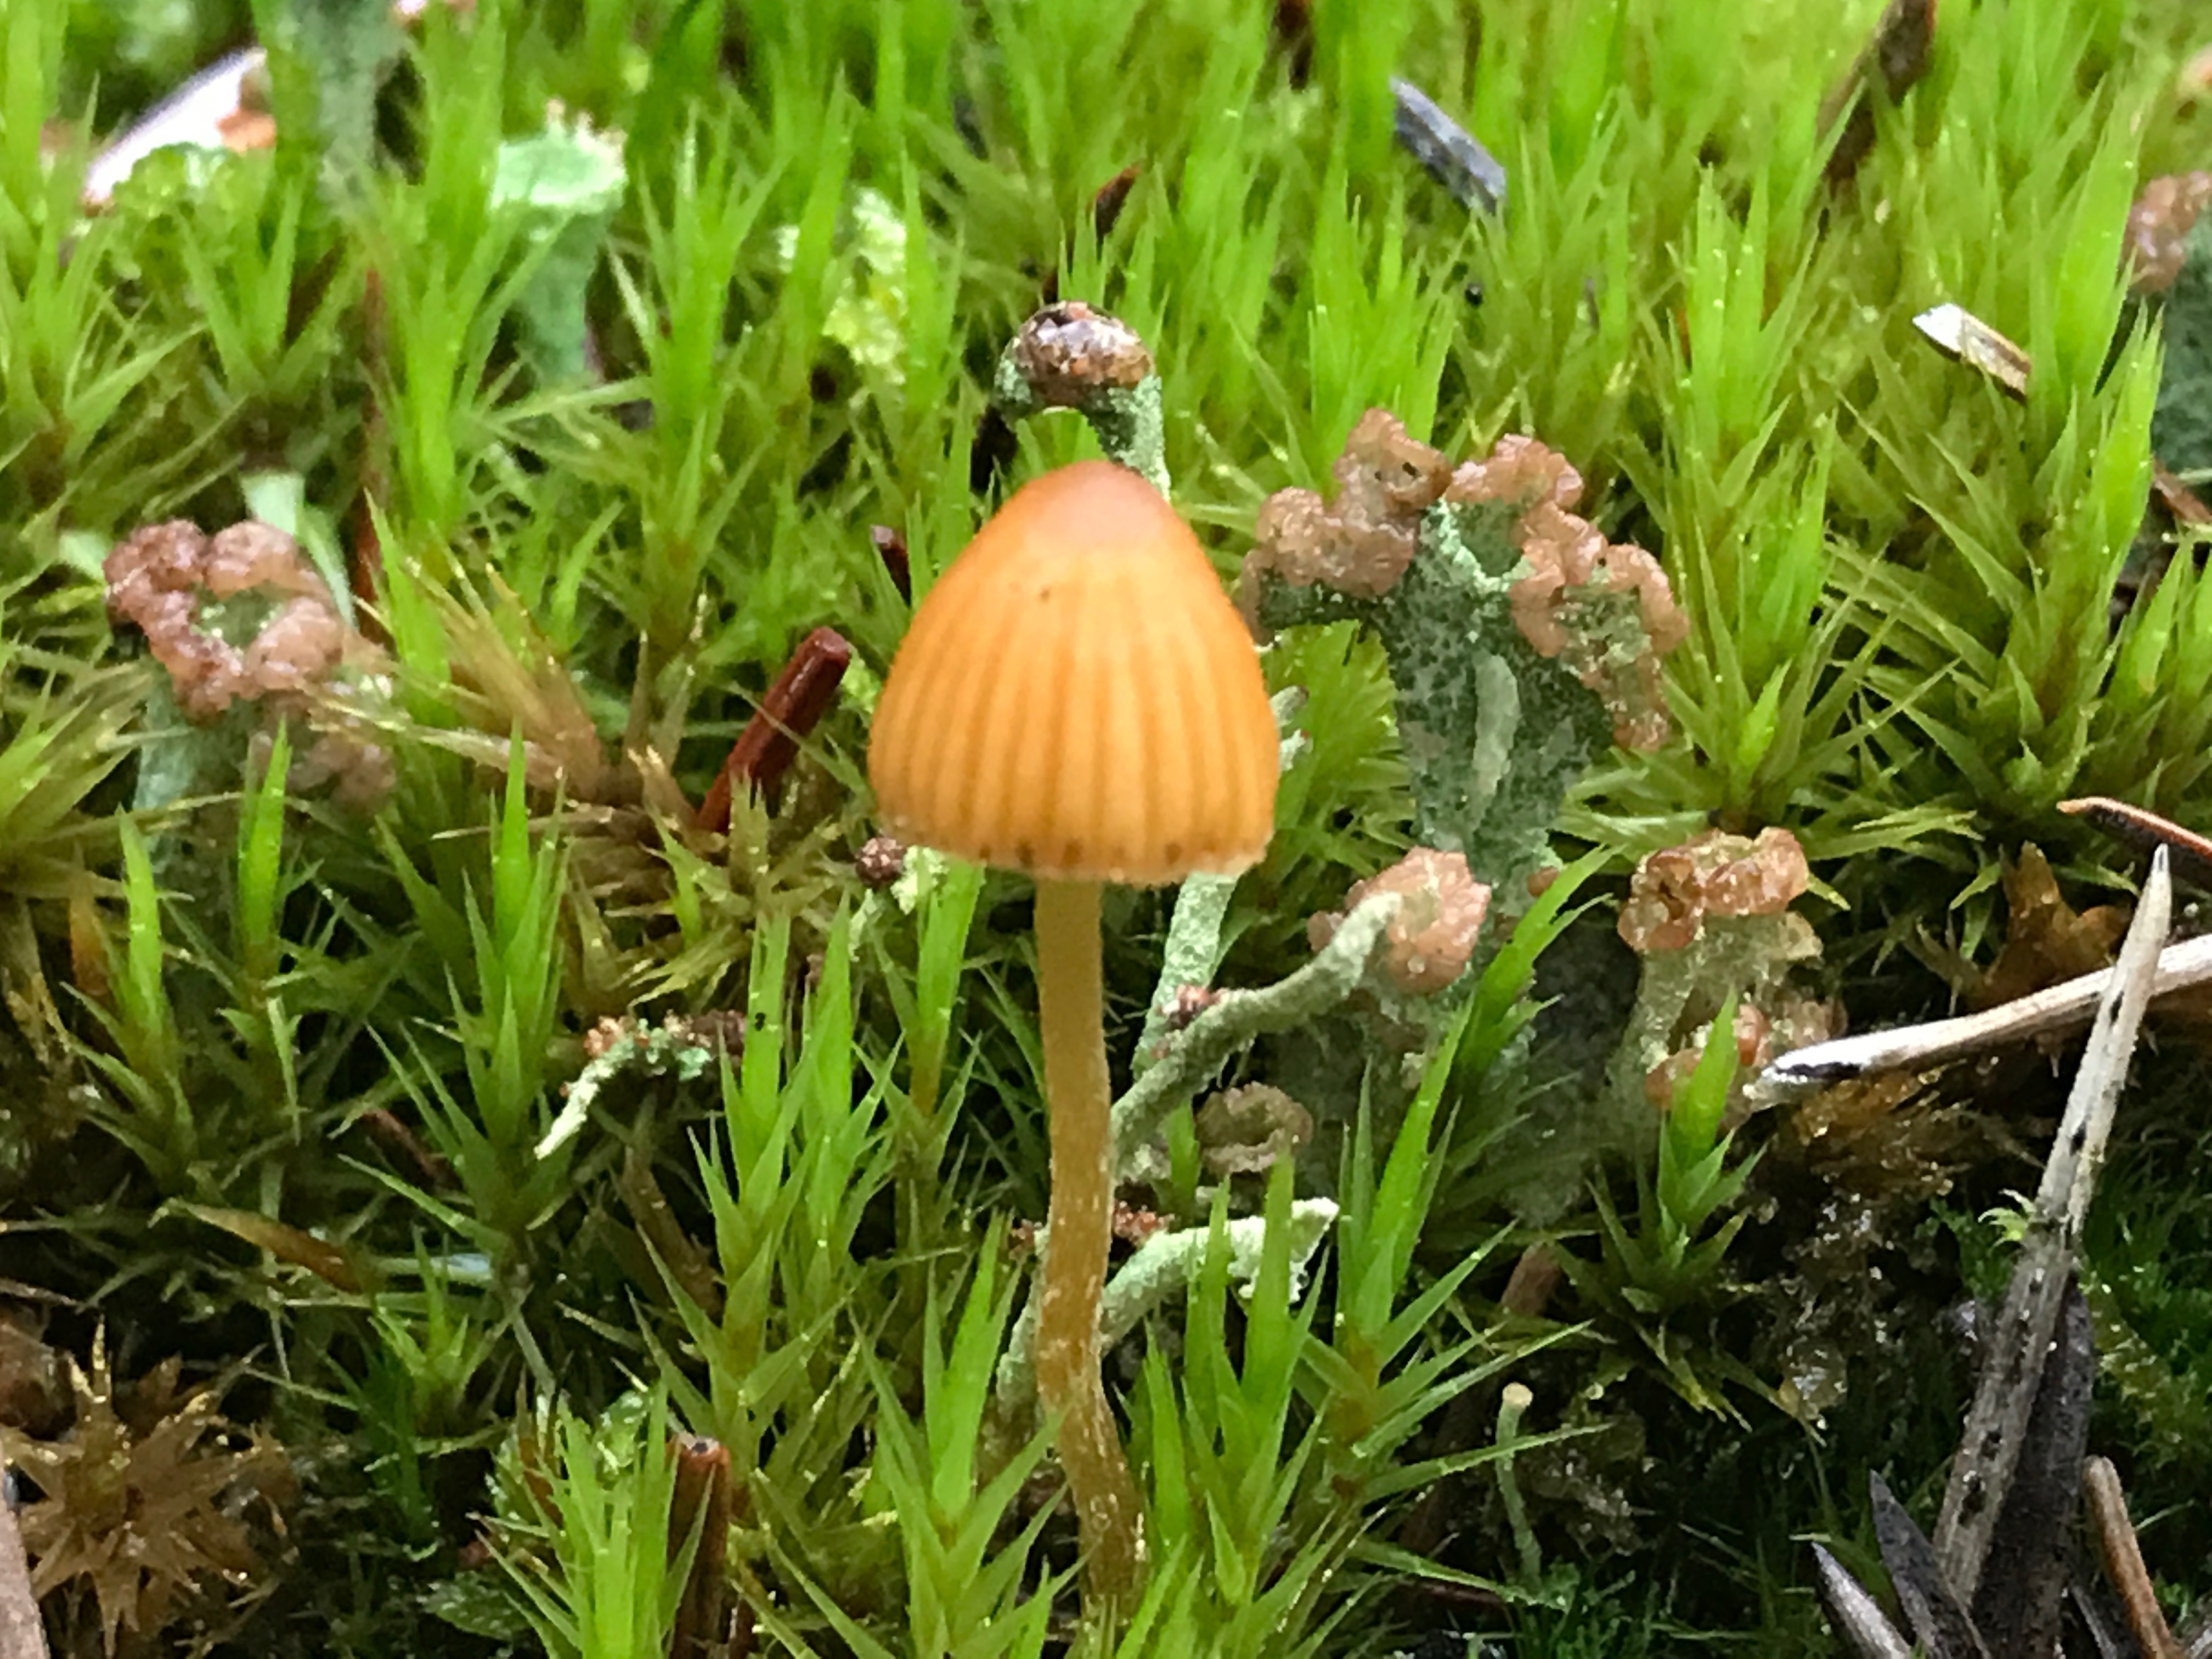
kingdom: Fungi
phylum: Basidiomycota
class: Agaricomycetes
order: Agaricales
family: Hymenogastraceae
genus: Galerina
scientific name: Galerina
